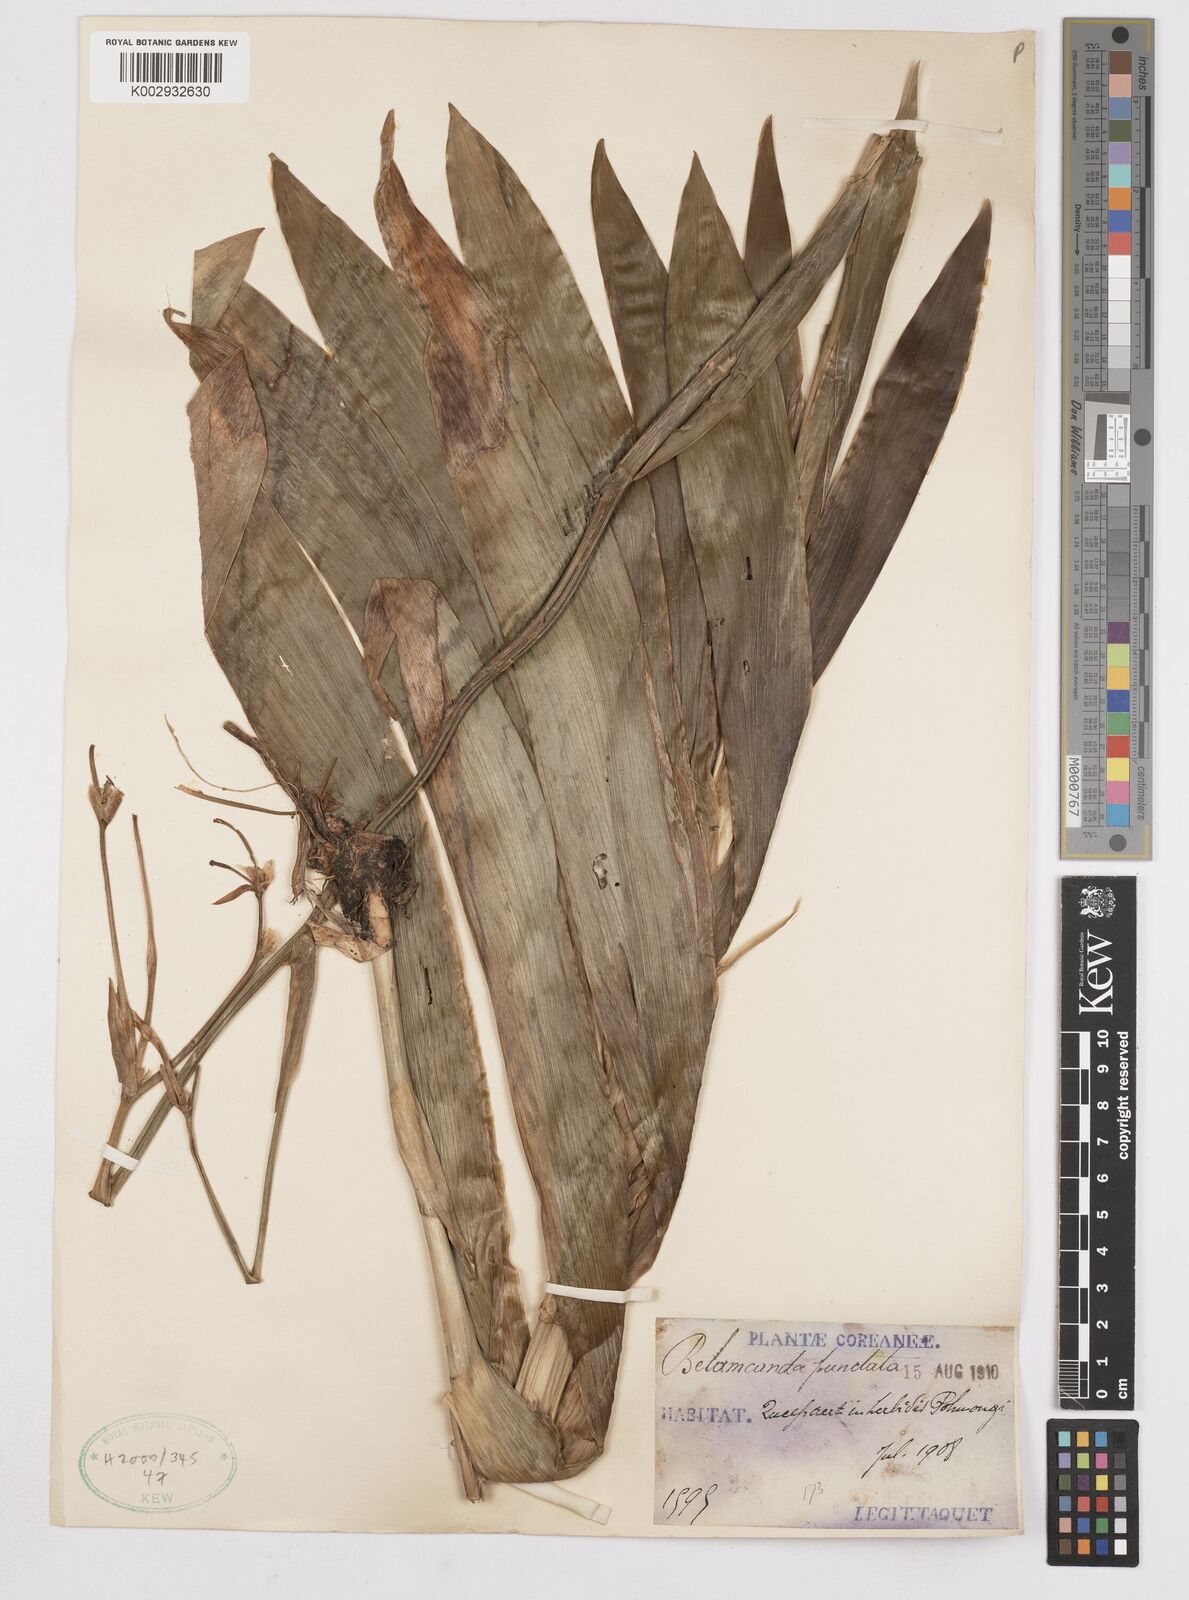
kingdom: Plantae
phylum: Tracheophyta
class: Liliopsida
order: Asparagales
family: Iridaceae
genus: Iris
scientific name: Iris
